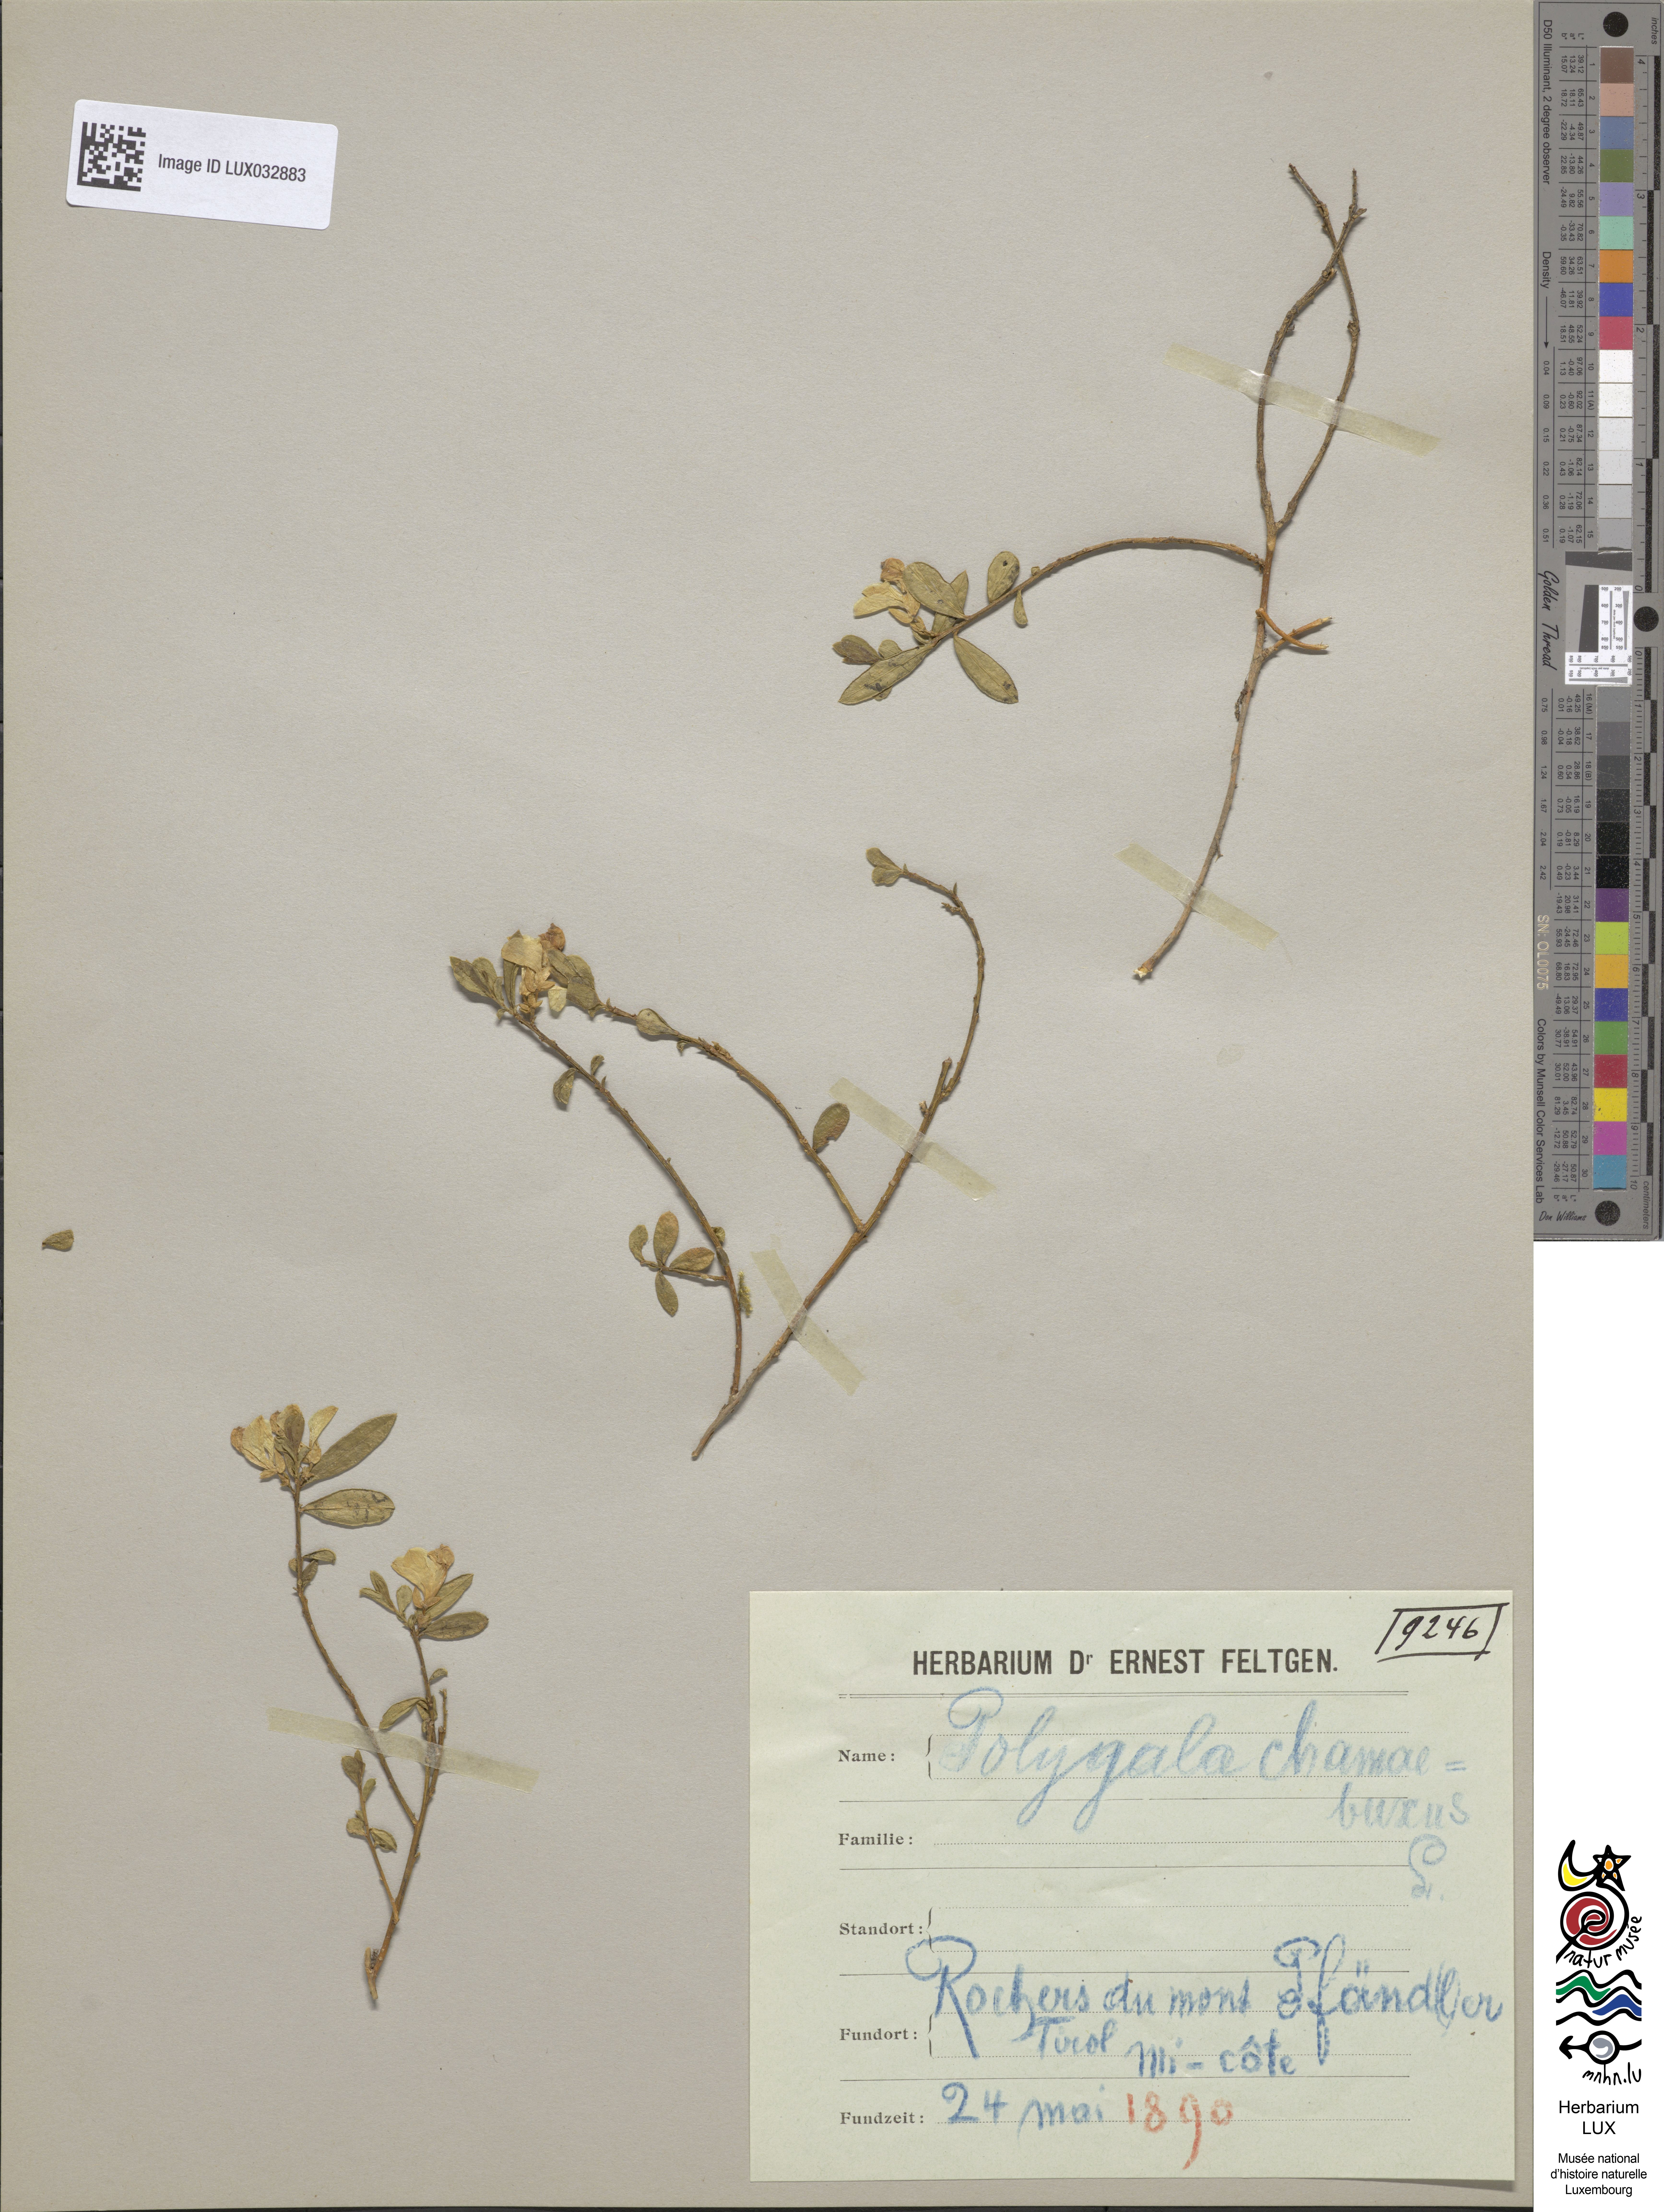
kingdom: Plantae
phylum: Tracheophyta
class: Magnoliopsida
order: Fabales
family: Polygalaceae
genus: Polygaloides
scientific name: Polygaloides chamaebuxus
